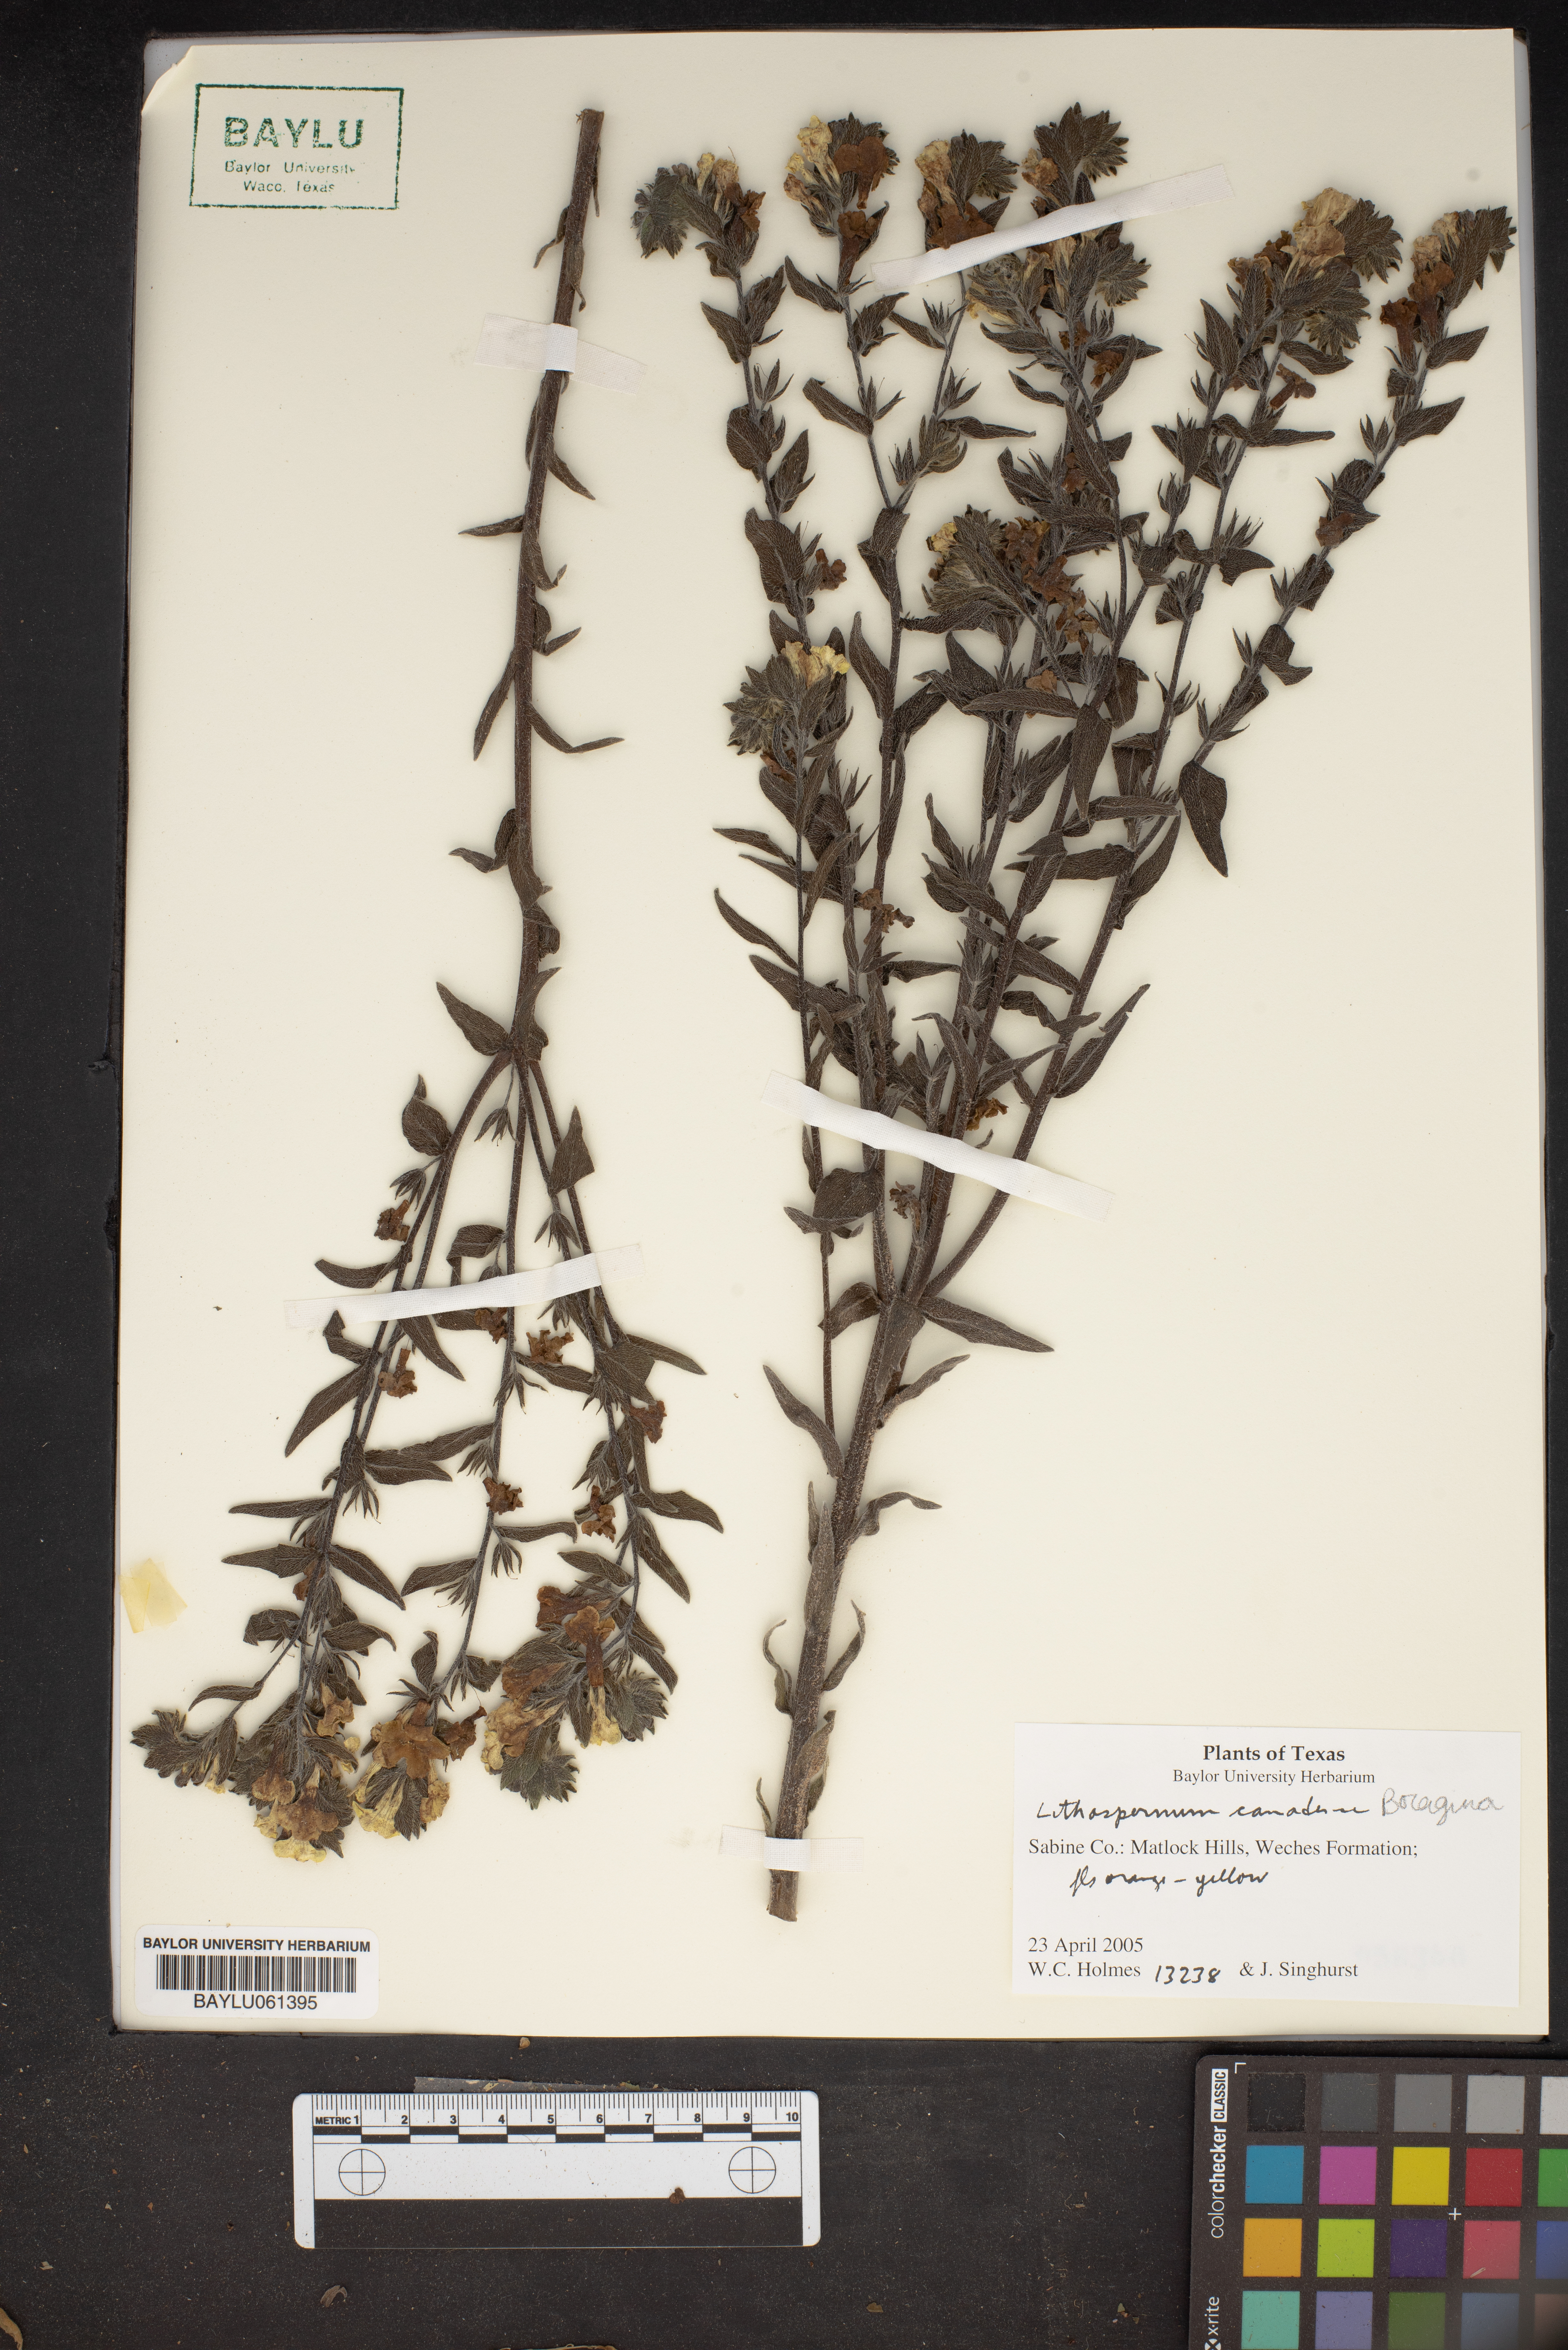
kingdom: Plantae
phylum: Tracheophyta
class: Magnoliopsida
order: Boraginales
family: Boraginaceae
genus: Lithospermum
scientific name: Lithospermum
